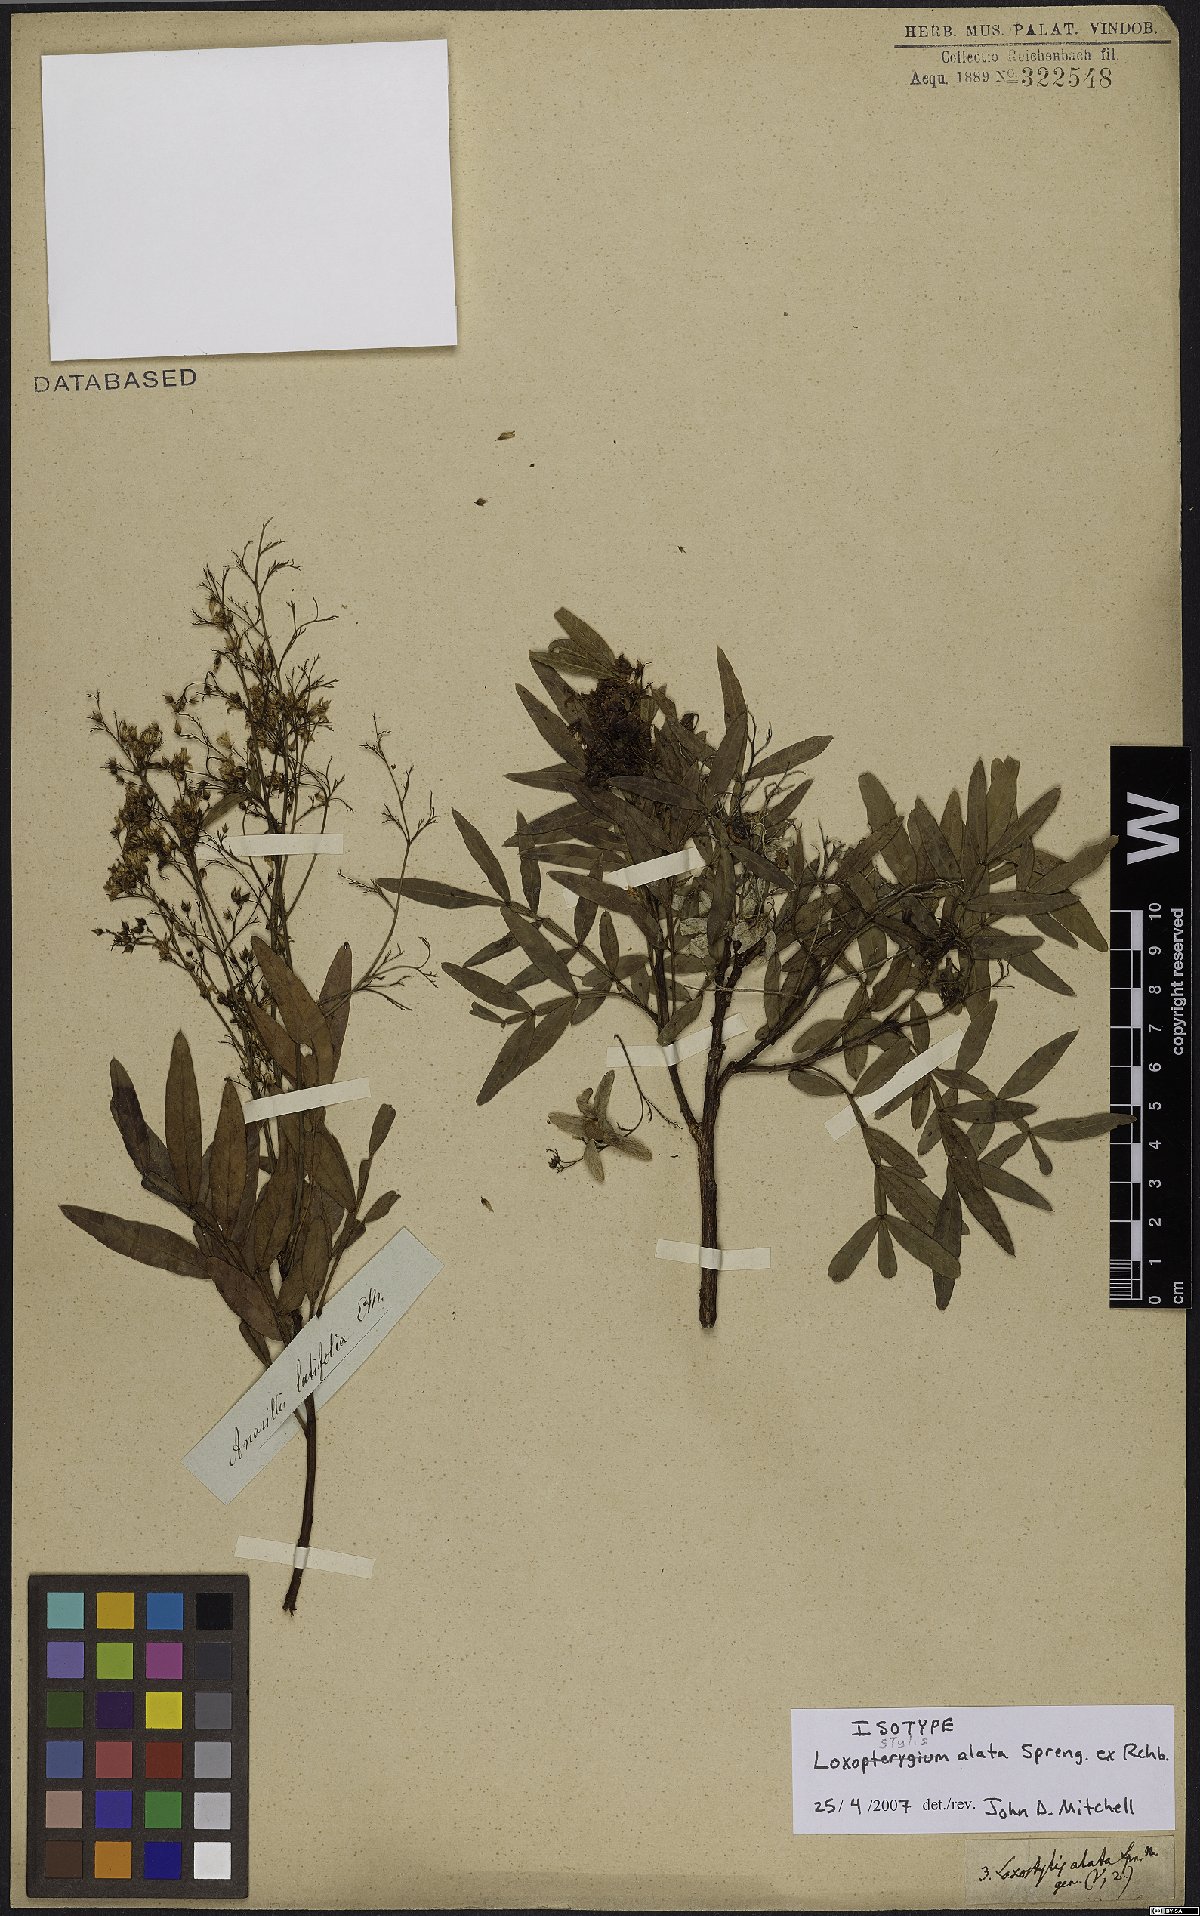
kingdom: Plantae
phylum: Tracheophyta
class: Magnoliopsida
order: Sapindales
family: Anacardiaceae
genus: Loxostylis
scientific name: Loxostylis alata
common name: Wild peppertree
